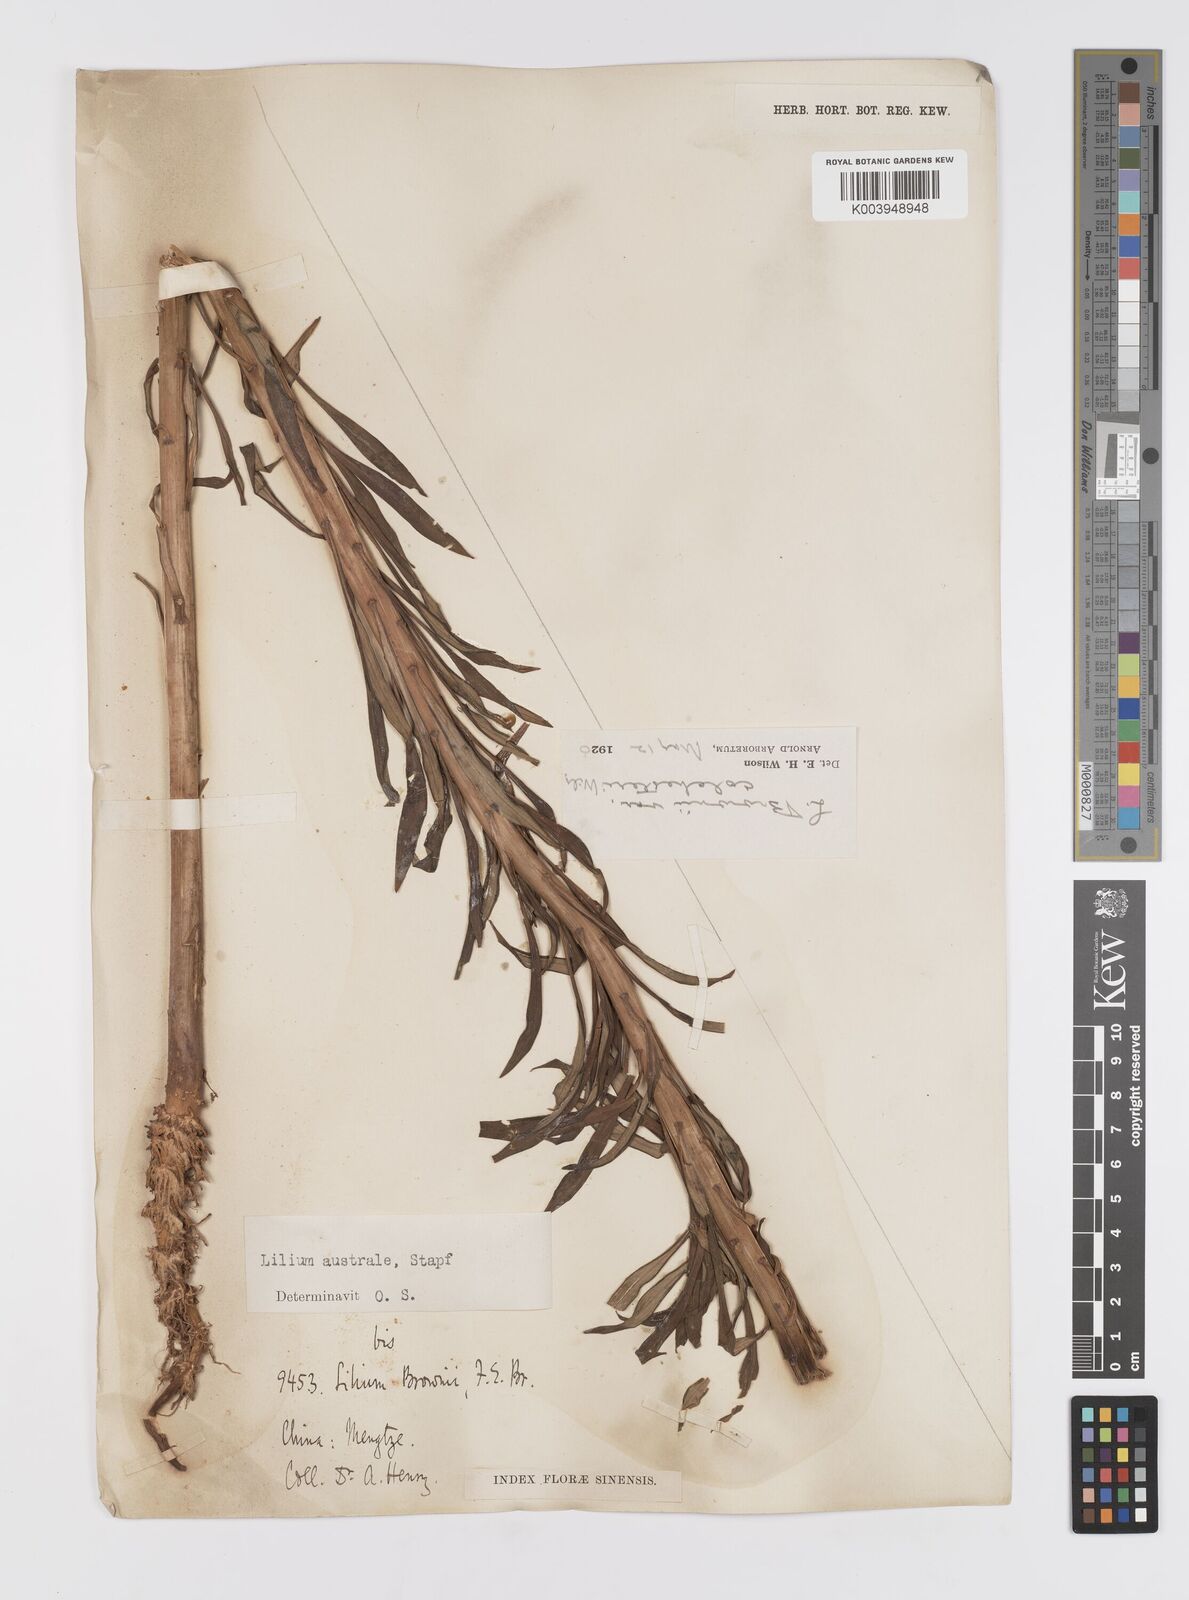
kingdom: Plantae
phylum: Tracheophyta
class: Liliopsida
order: Liliales
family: Liliaceae
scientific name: Liliaceae
